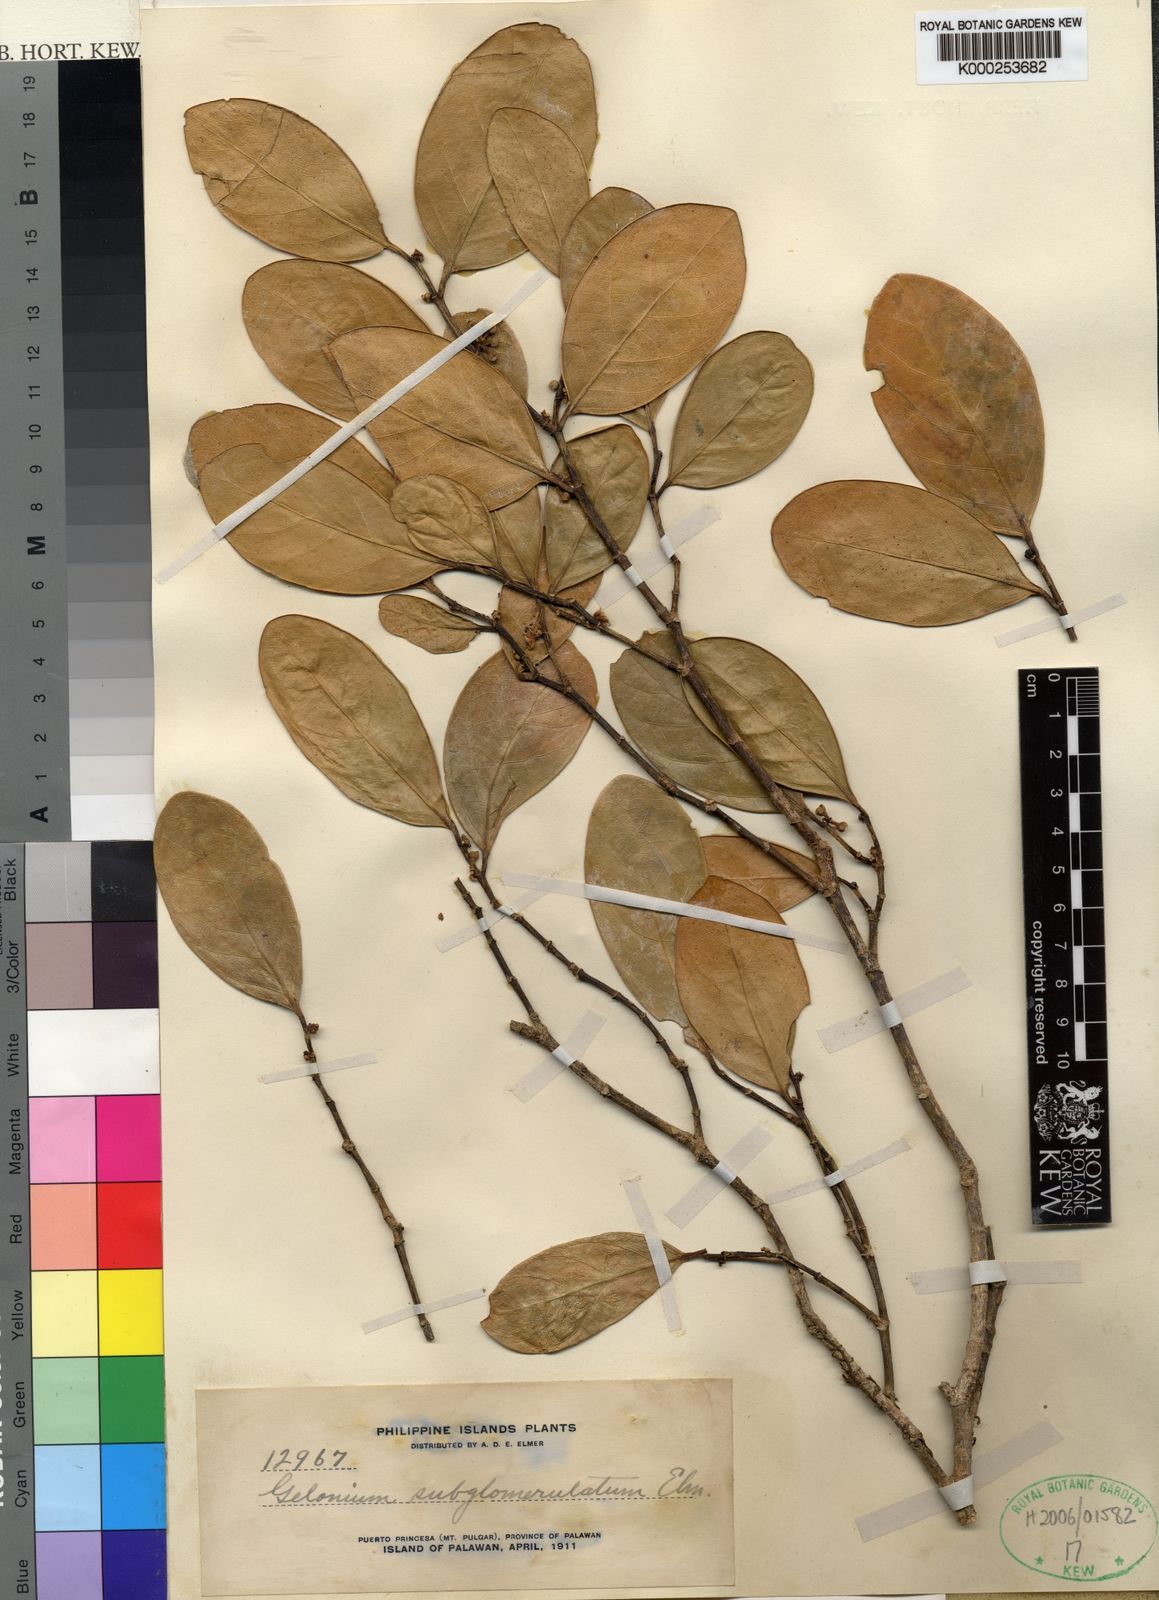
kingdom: Plantae
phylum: Tracheophyta
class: Magnoliopsida
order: Malpighiales
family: Euphorbiaceae
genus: Suregada
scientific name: Suregada glomerulata
